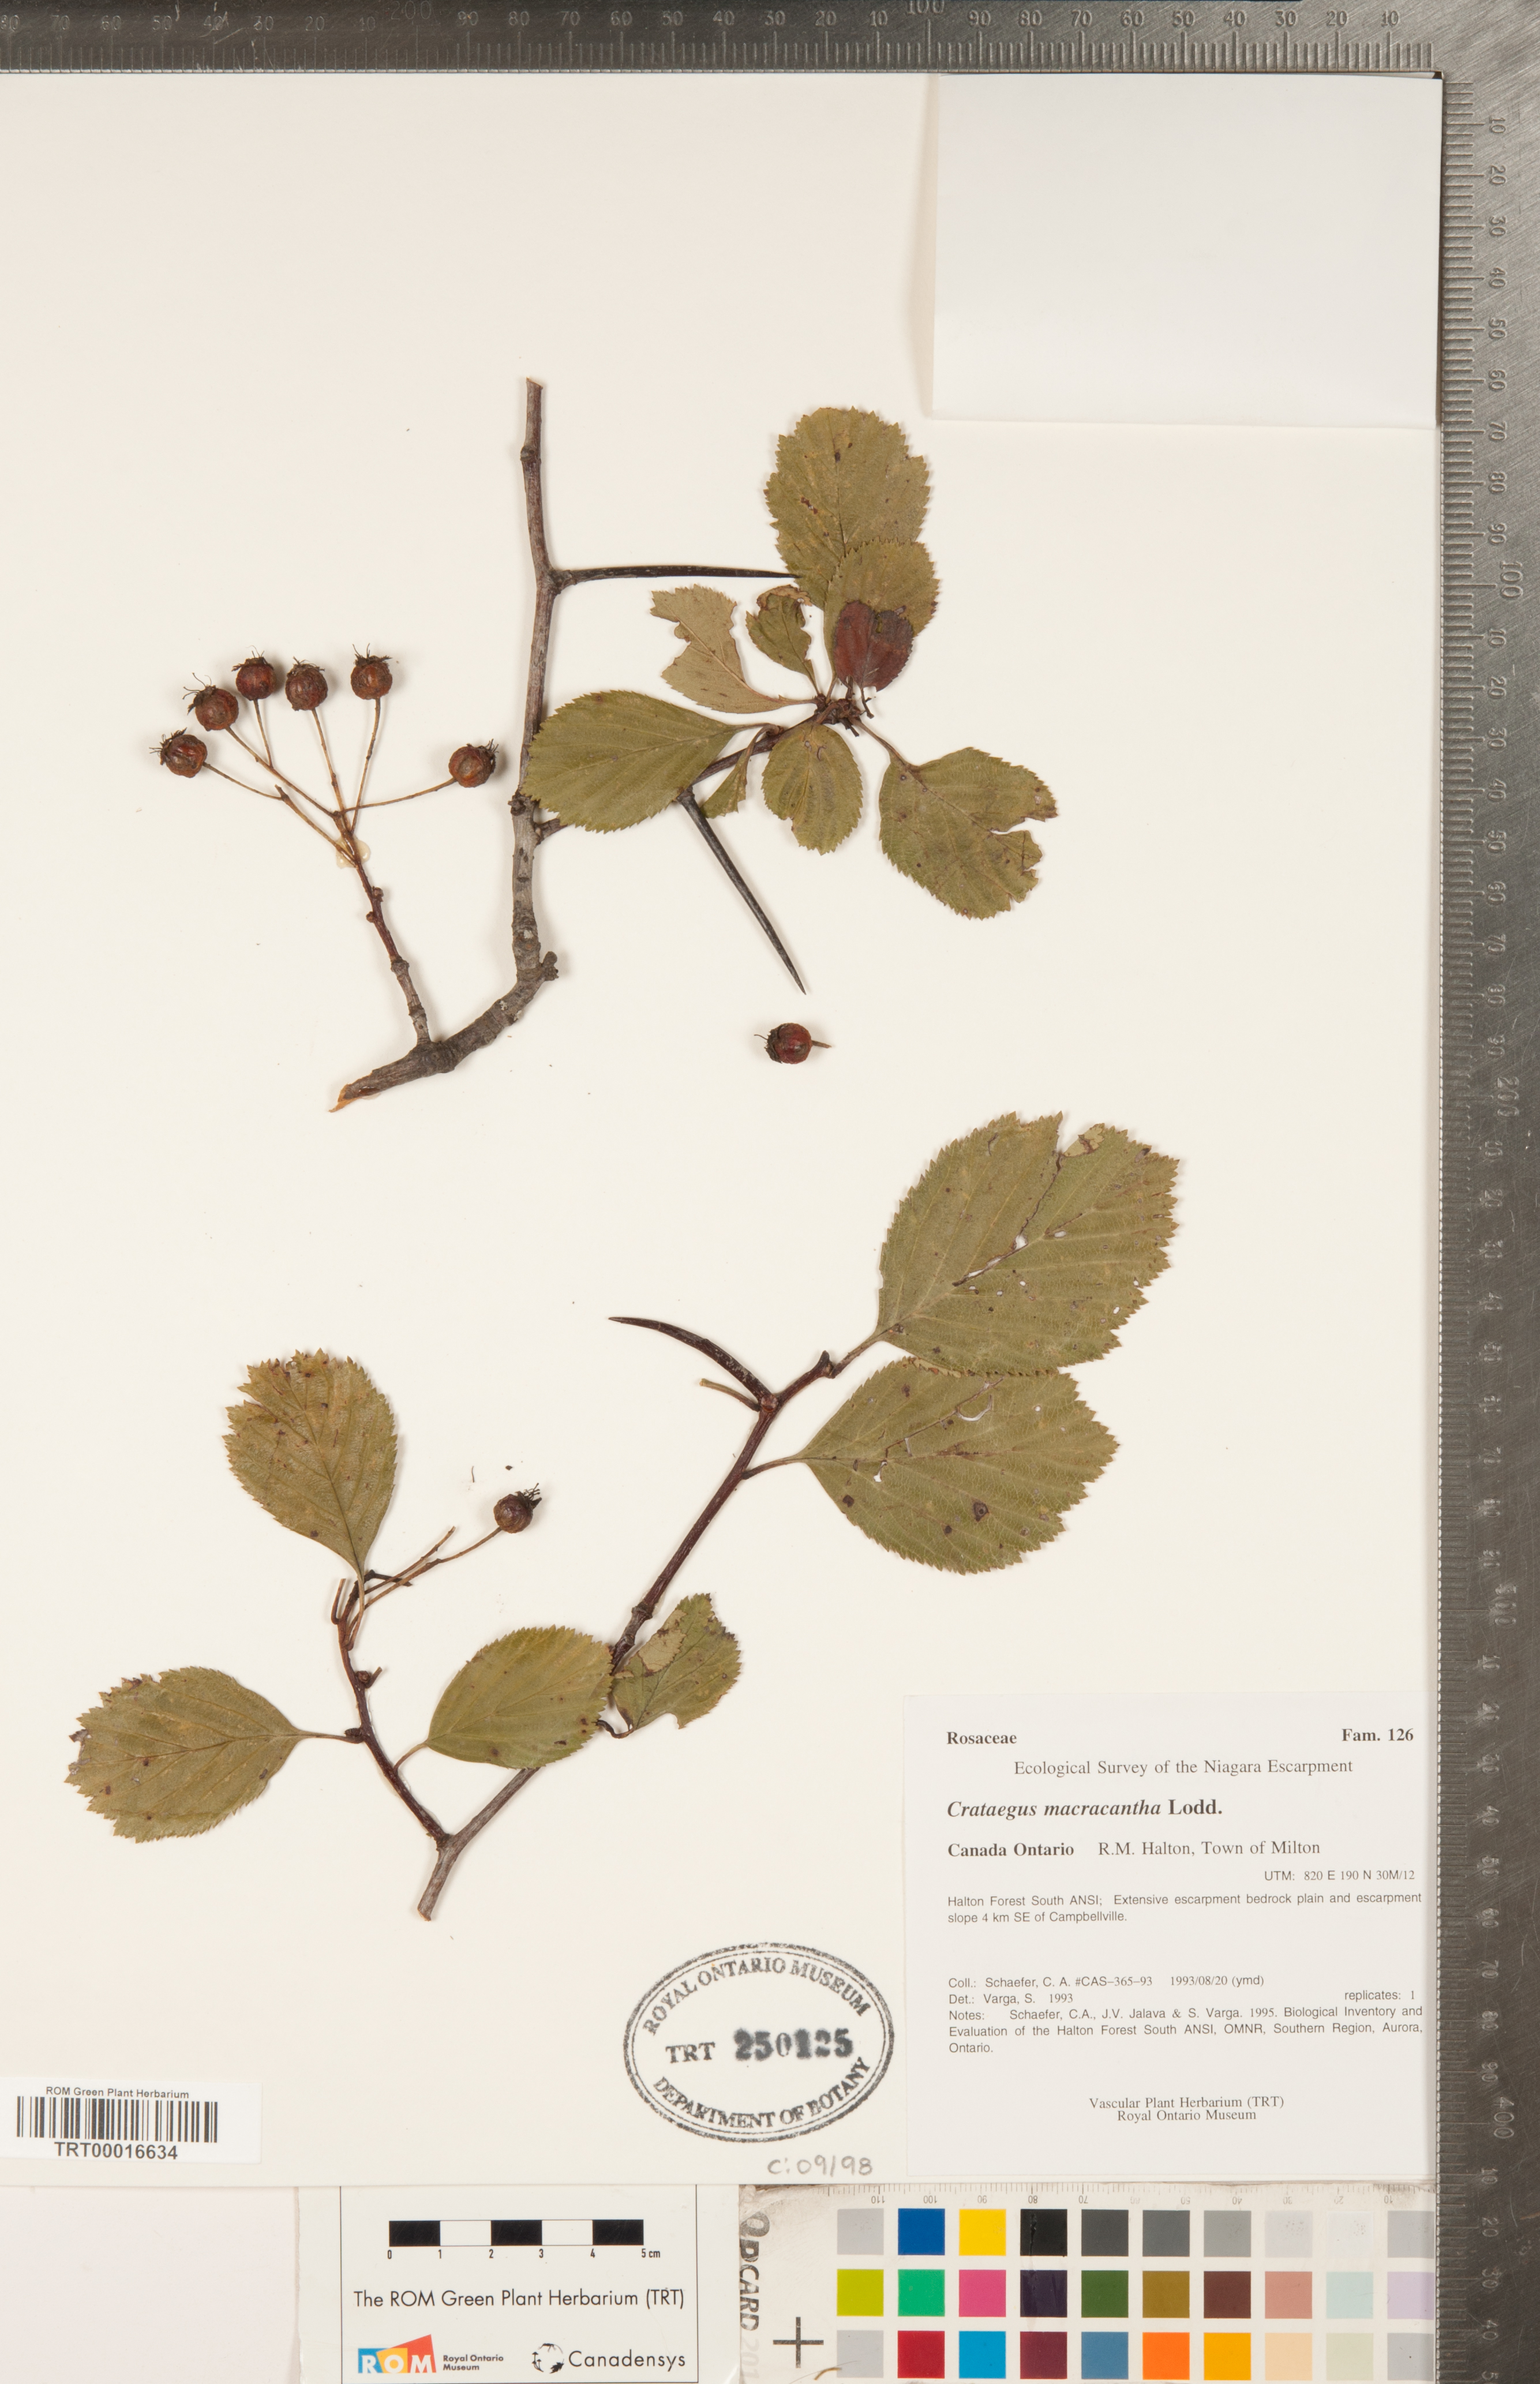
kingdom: Plantae
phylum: Tracheophyta
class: Magnoliopsida
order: Rosales
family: Rosaceae
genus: Crataegus
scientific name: Crataegus macracantha
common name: Large-thorn hawthorn
